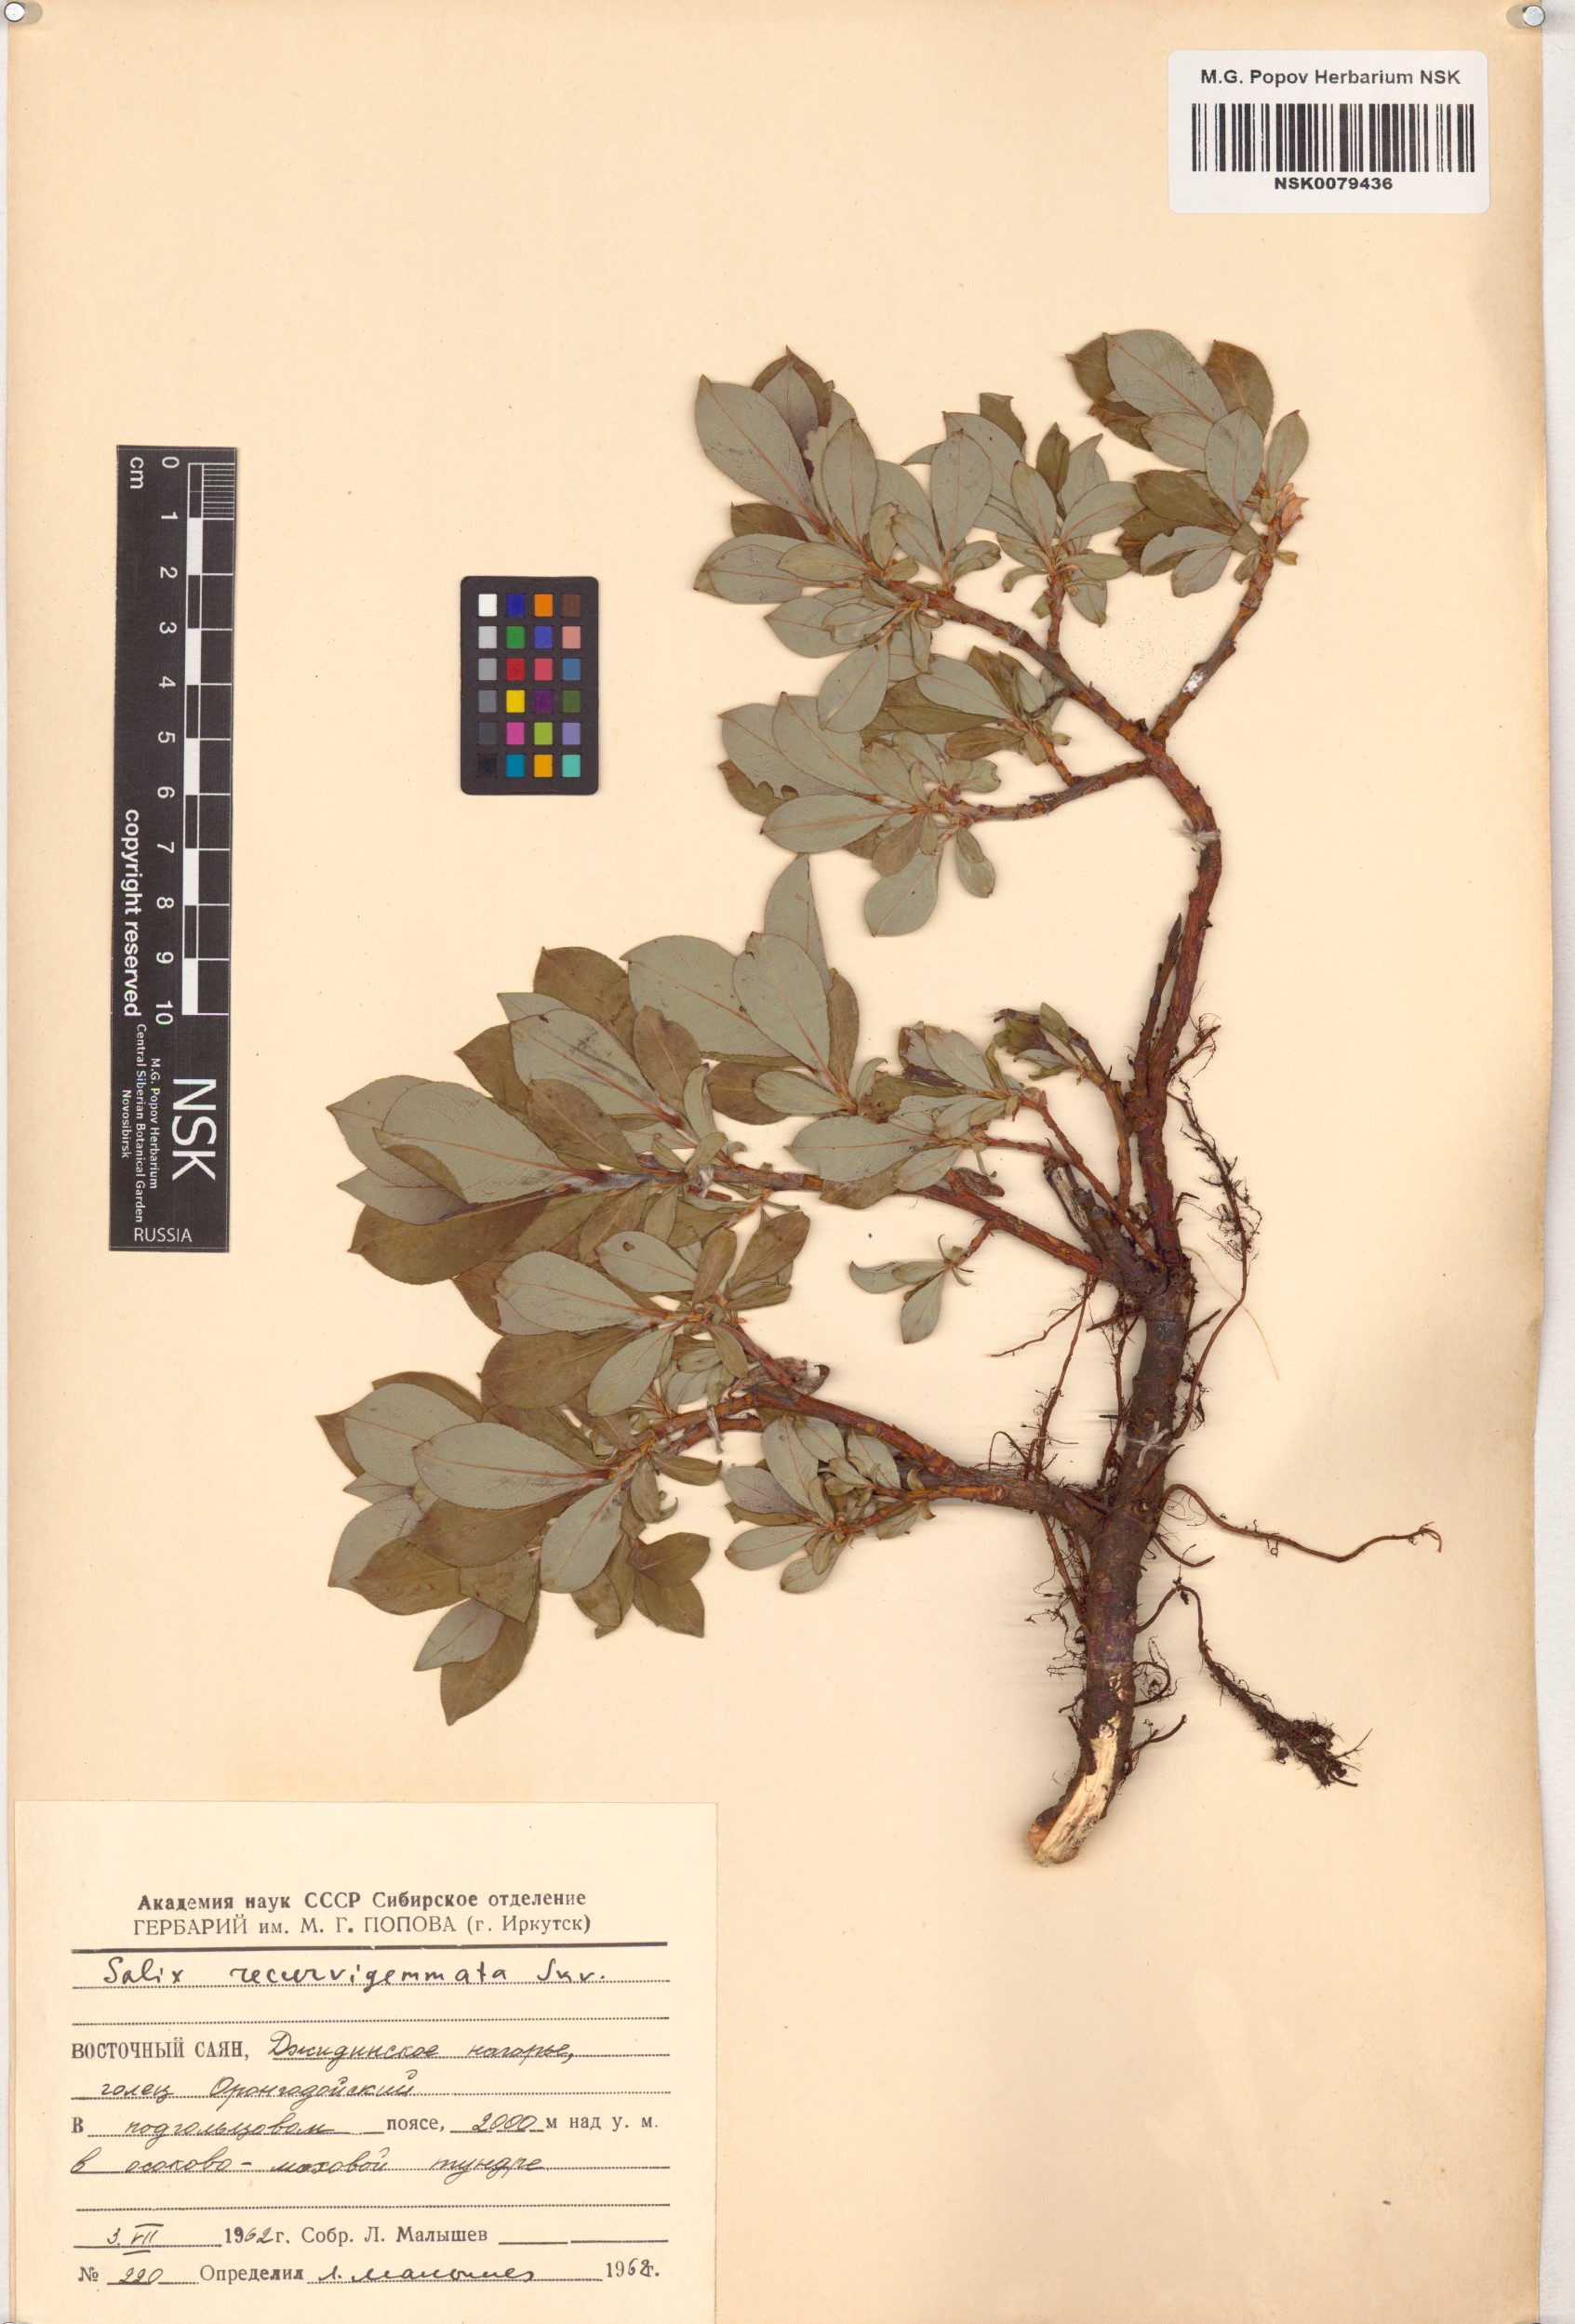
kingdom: Plantae
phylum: Tracheophyta
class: Magnoliopsida
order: Malpighiales
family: Salicaceae
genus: Salix
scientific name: Salix recurvigemmata
